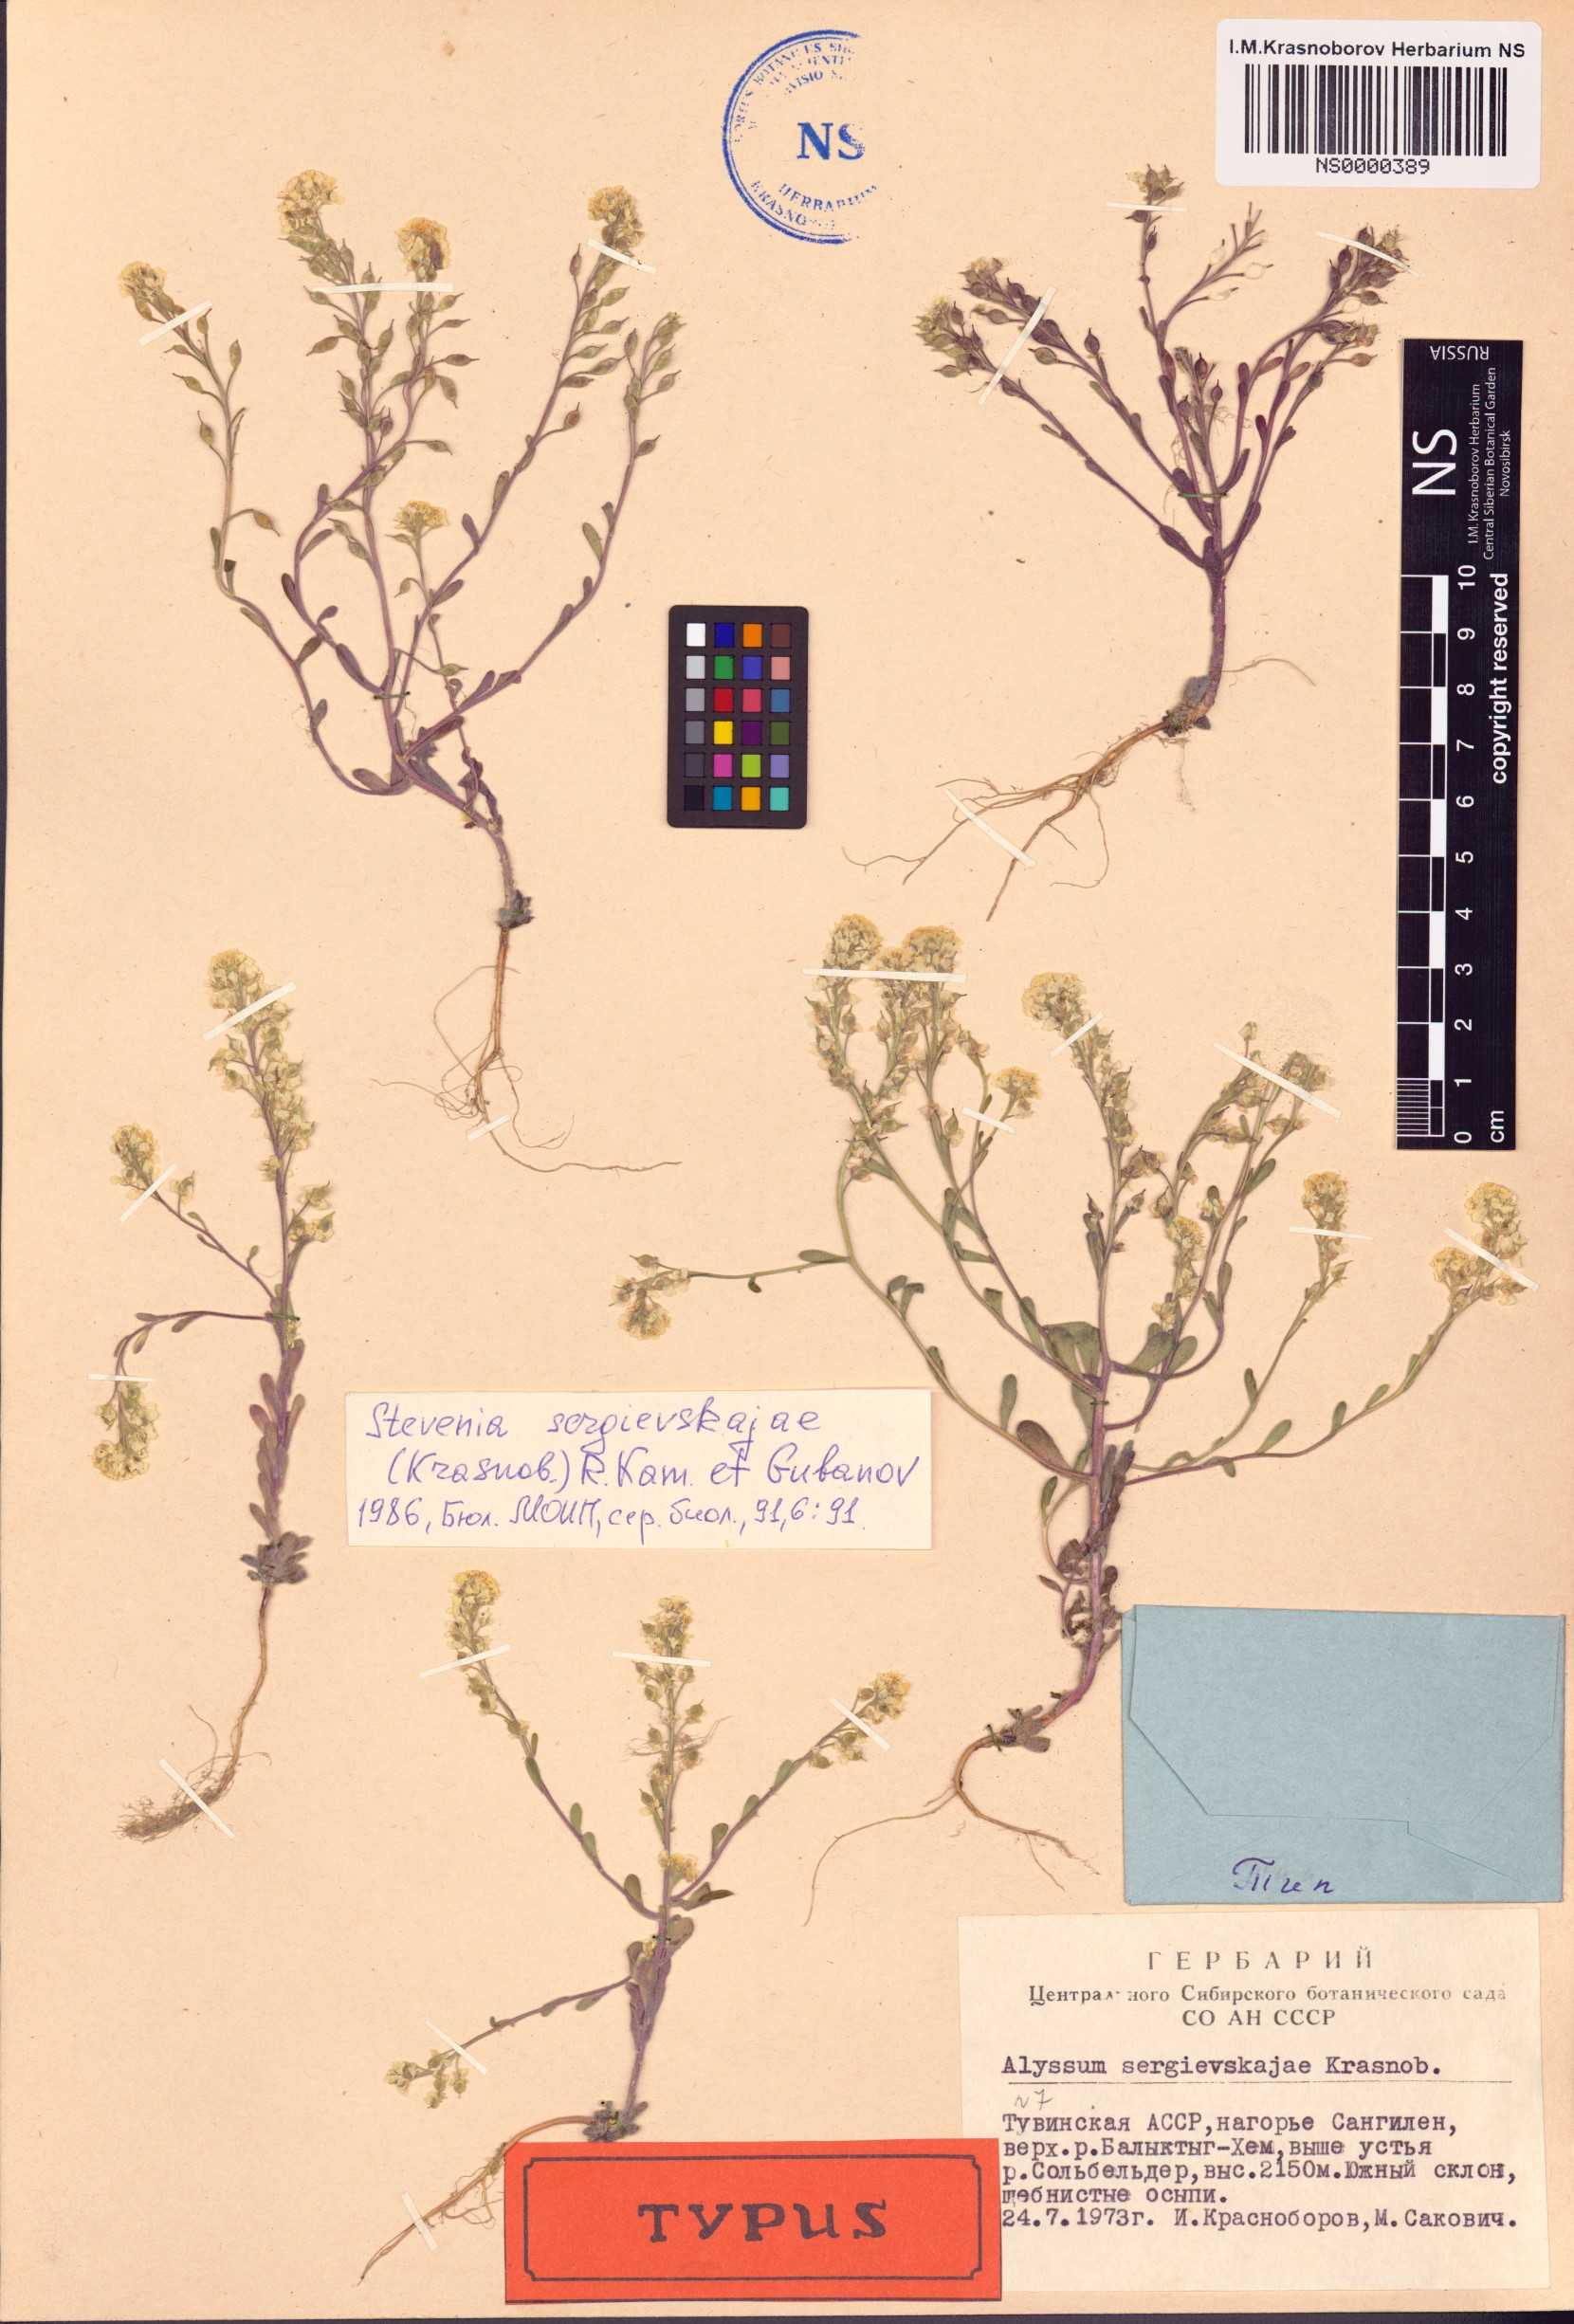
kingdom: Plantae
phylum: Tracheophyta
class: Magnoliopsida
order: Brassicales
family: Brassicaceae
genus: Stevenia
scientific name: Stevenia sergievskajae
